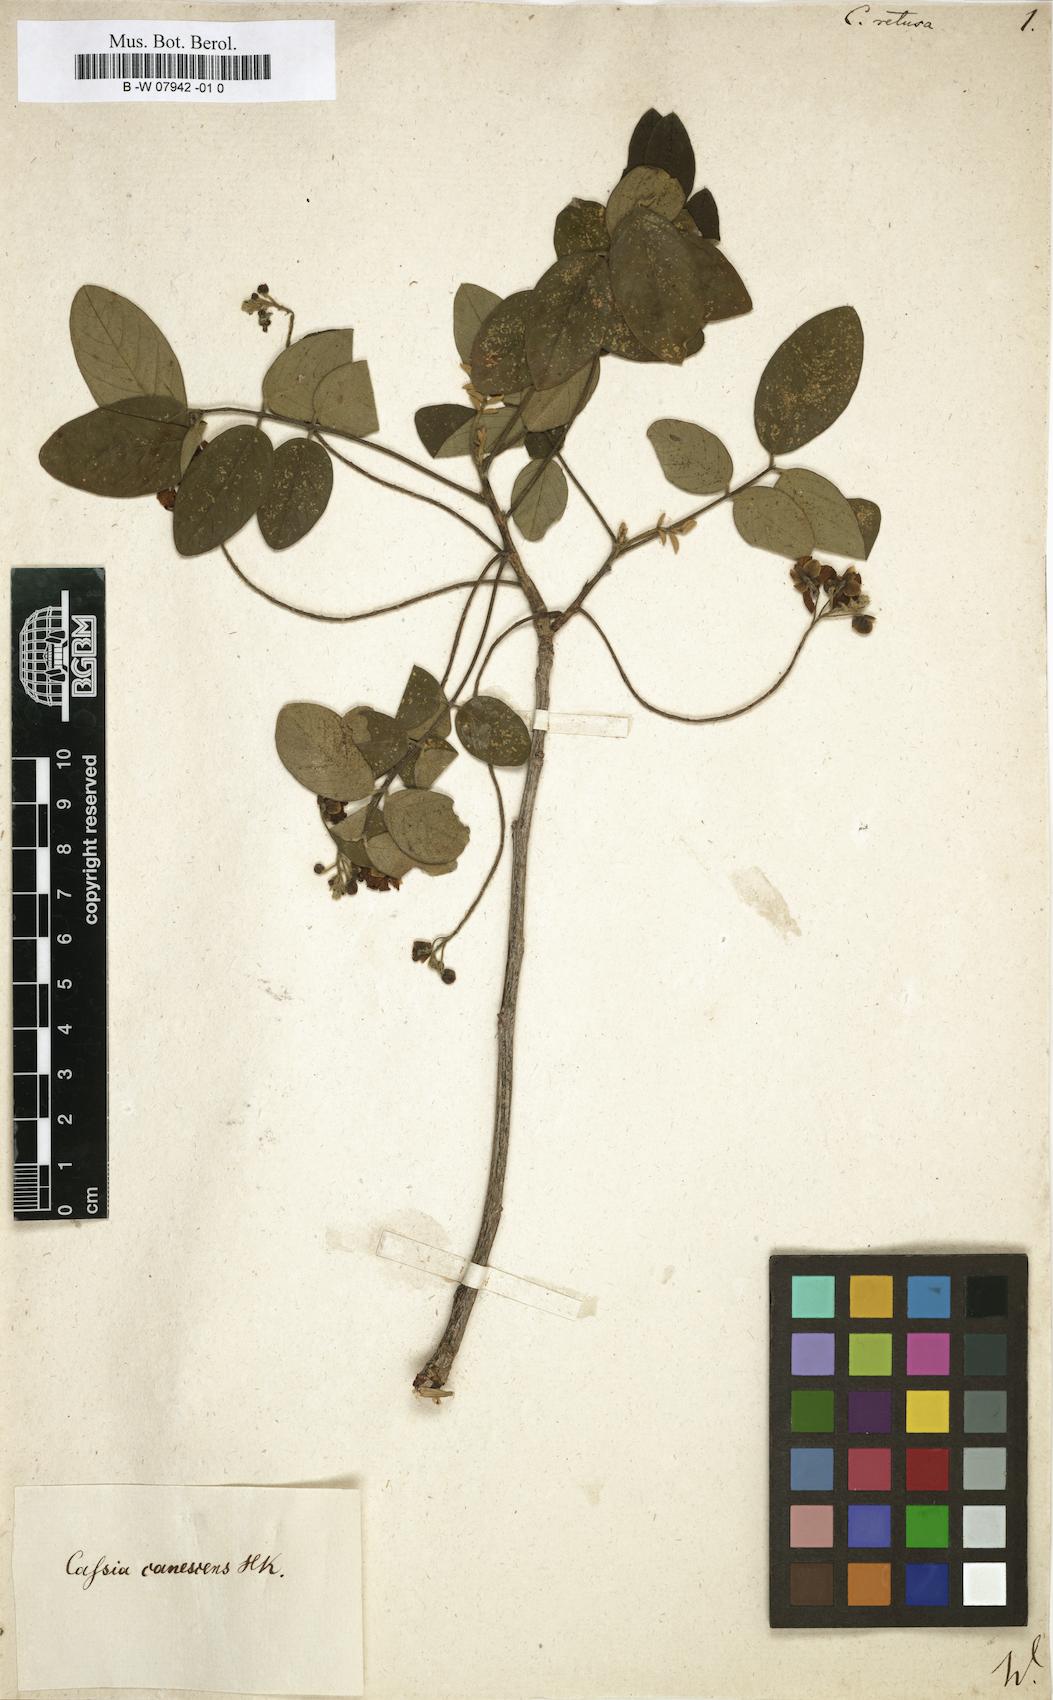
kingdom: Plantae
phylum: Tracheophyta
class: Magnoliopsida
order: Fabales
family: Fabaceae
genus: Senna
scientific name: Senna gaudichaudii
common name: Climbing cassia
